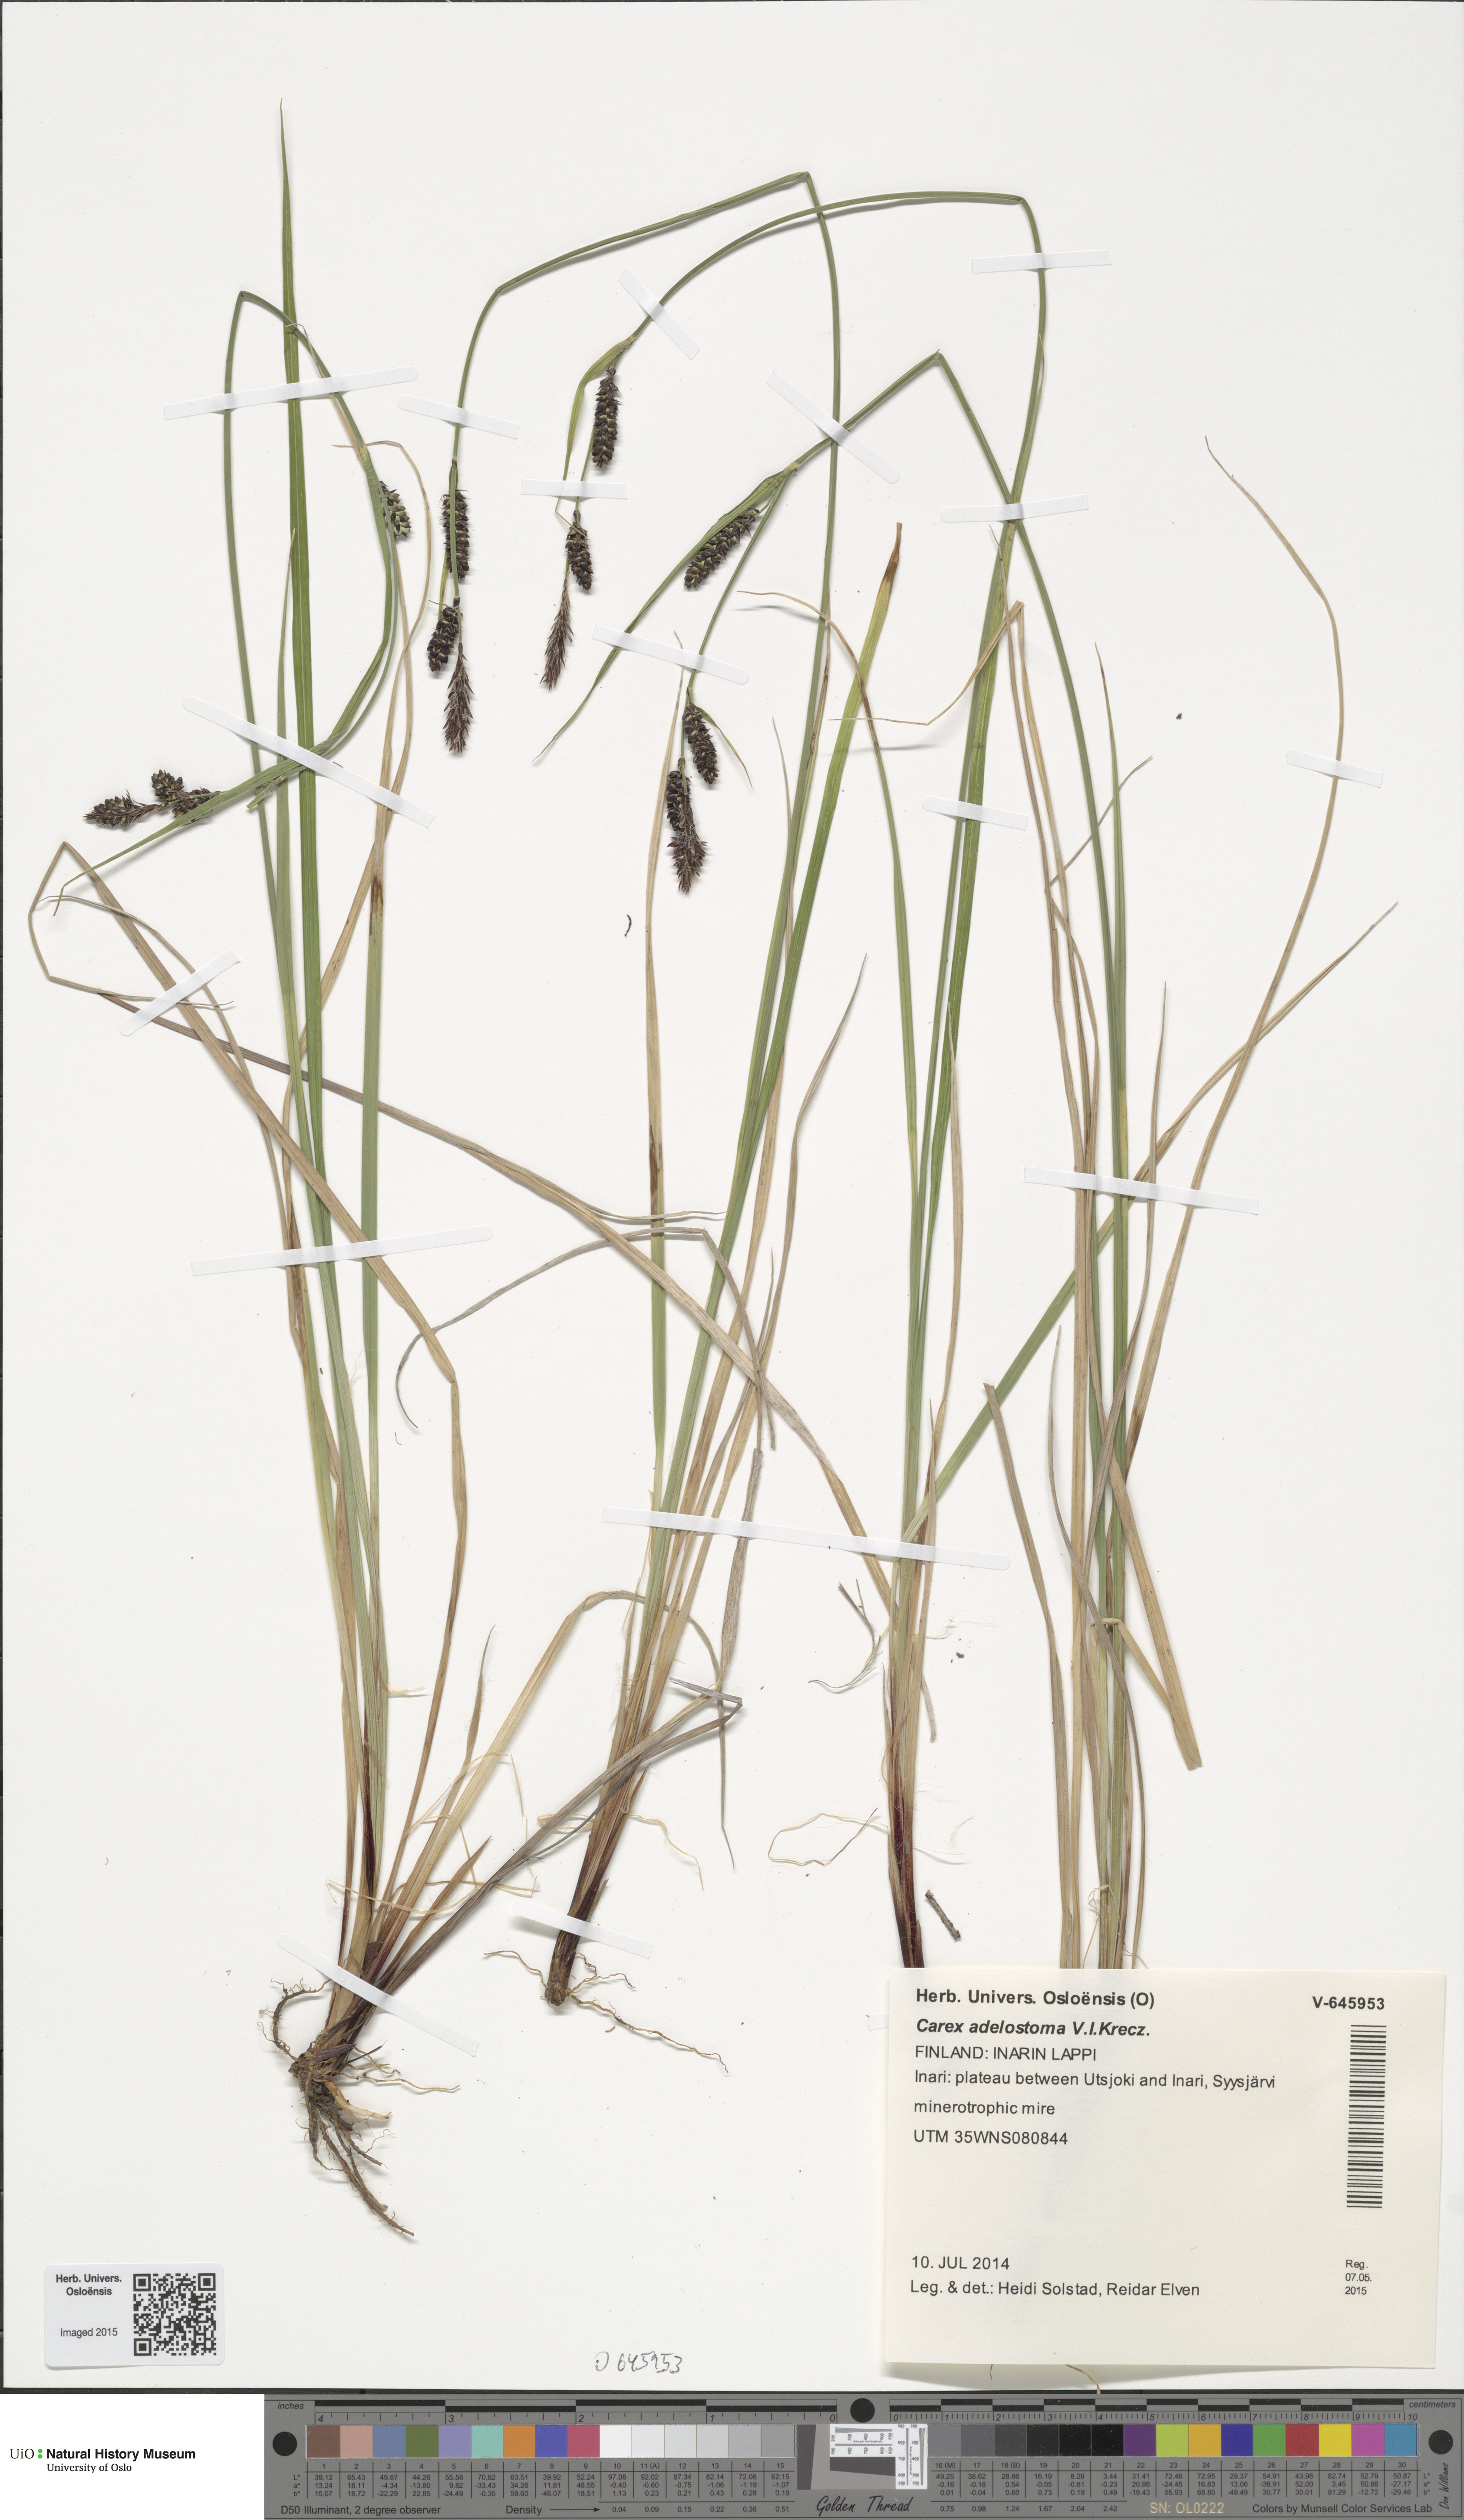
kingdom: Plantae
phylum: Tracheophyta
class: Liliopsida
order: Poales
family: Cyperaceae
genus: Carex
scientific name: Carex adelostoma
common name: Circumpolar sedge
